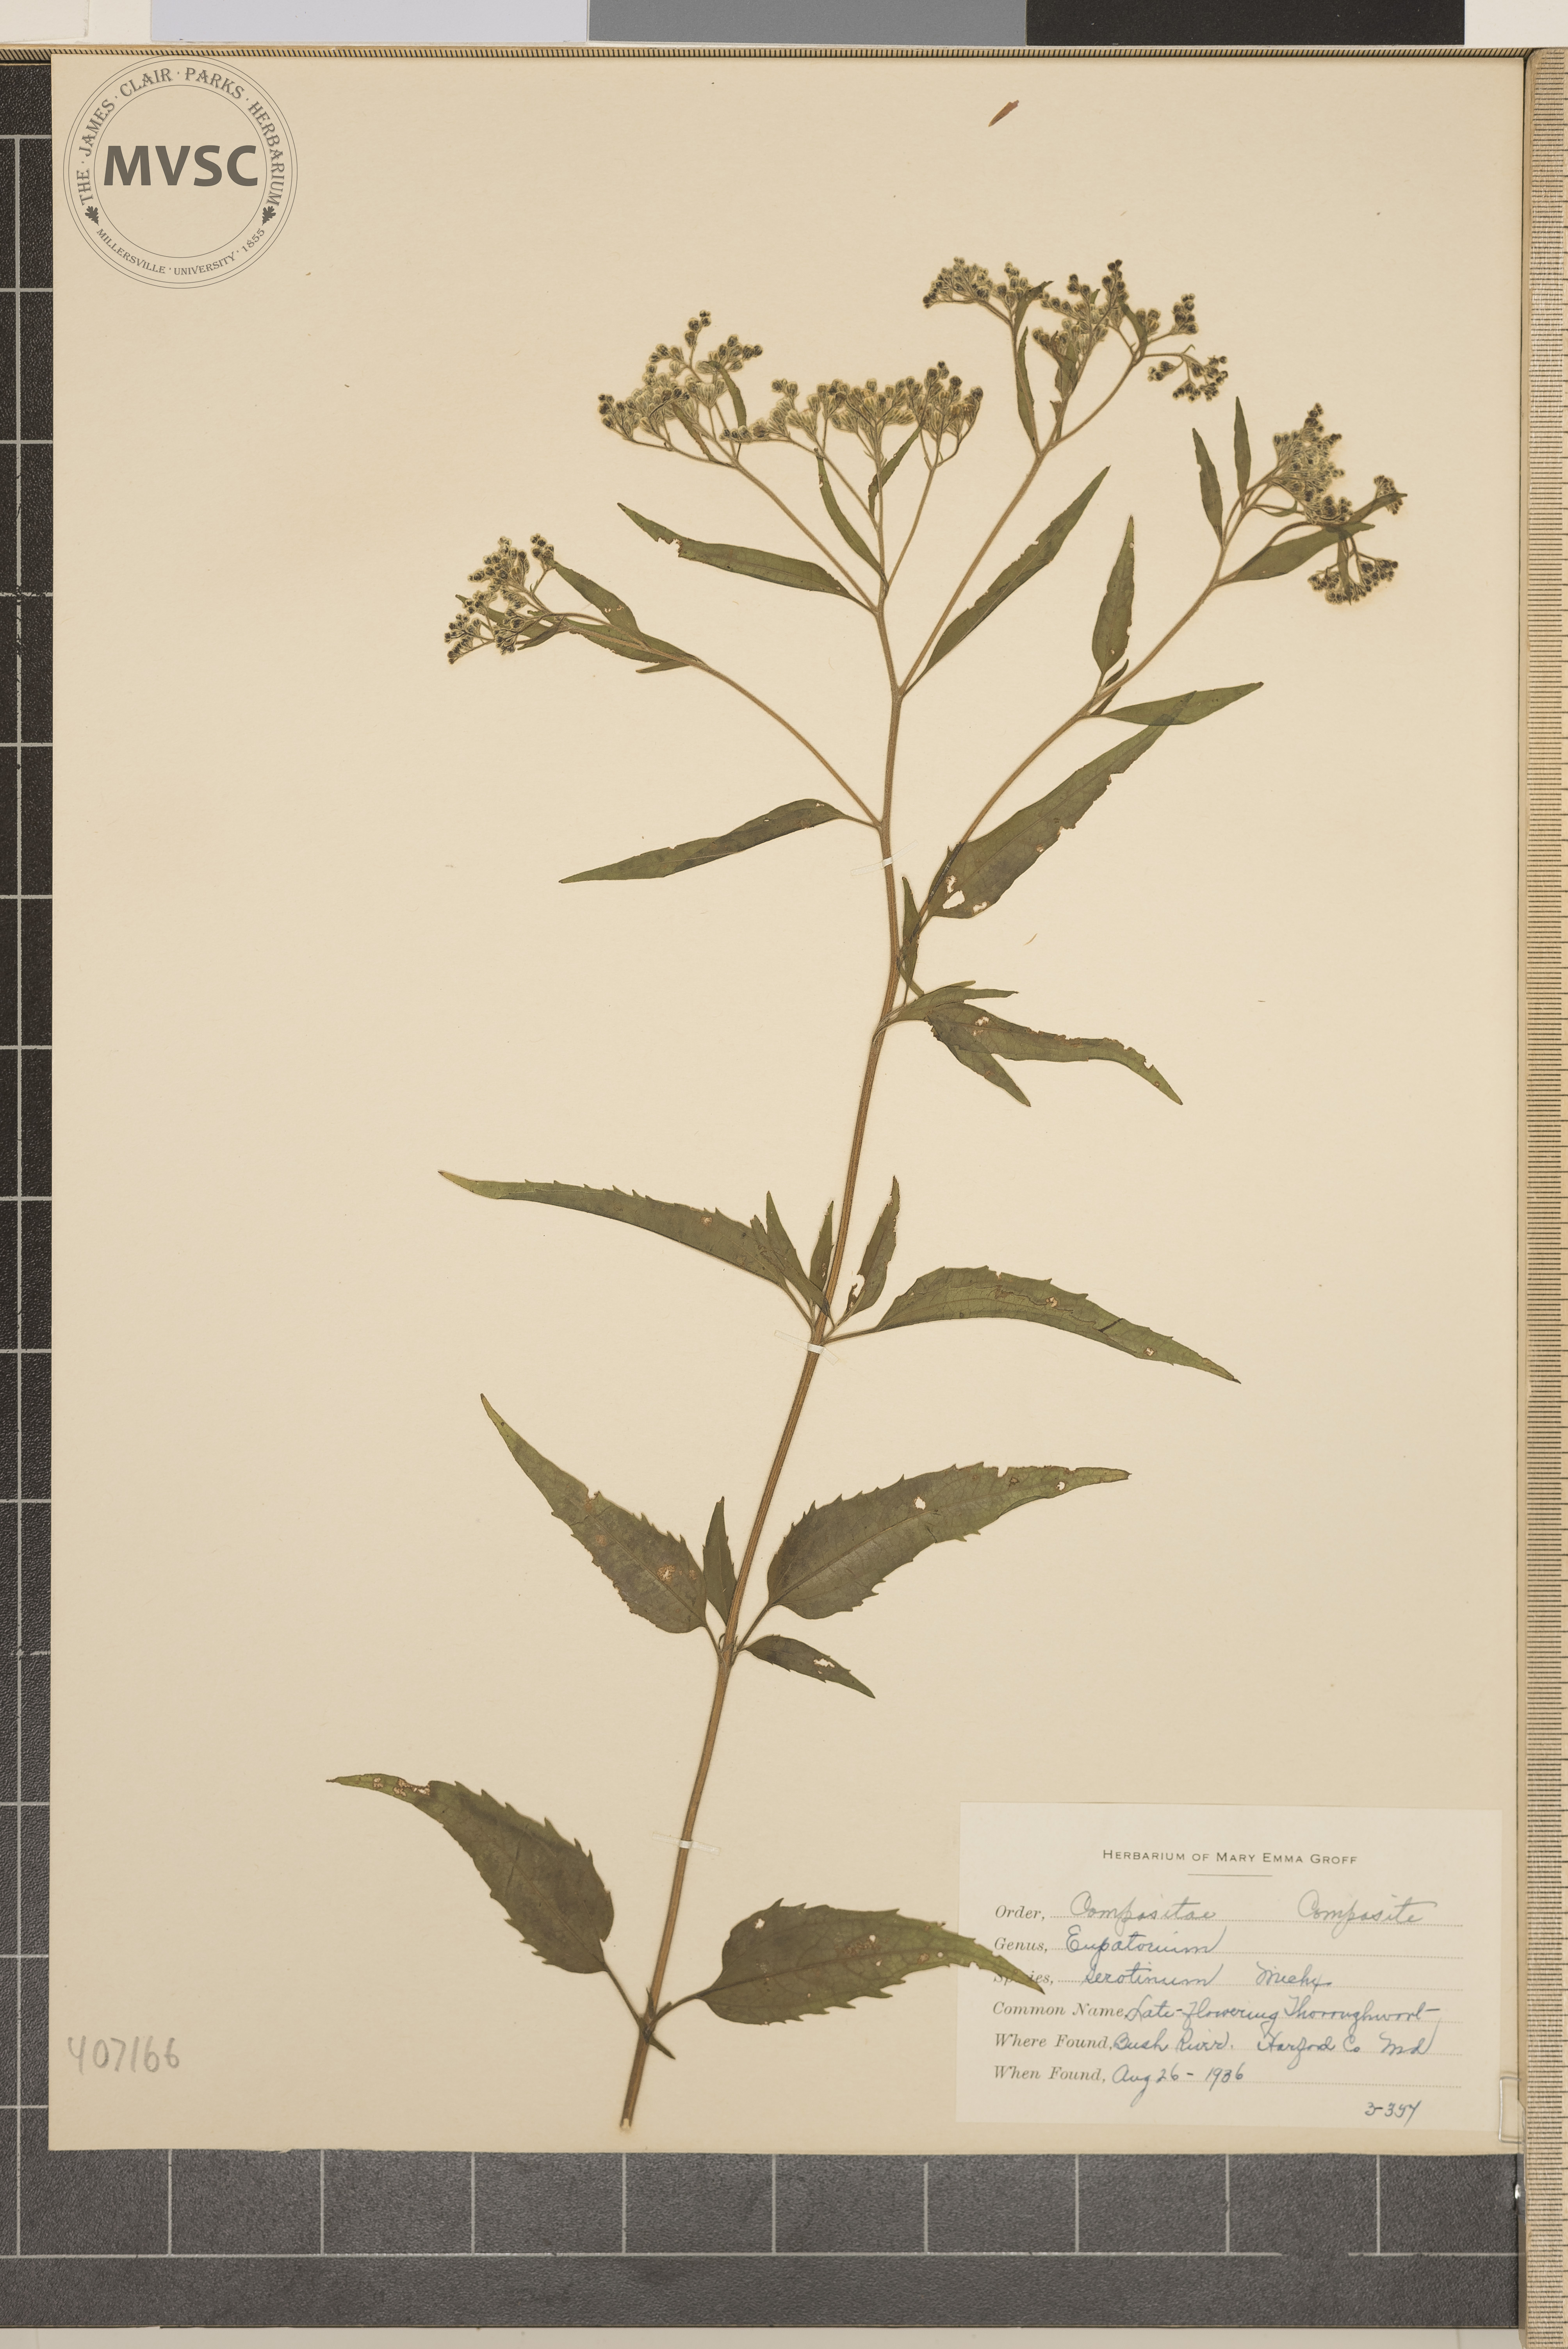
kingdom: Plantae
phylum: Tracheophyta
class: Magnoliopsida
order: Asterales
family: Asteraceae
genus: Eupatorium
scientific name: Eupatorium serotinum
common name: Late-Flowering Thoroughwort
